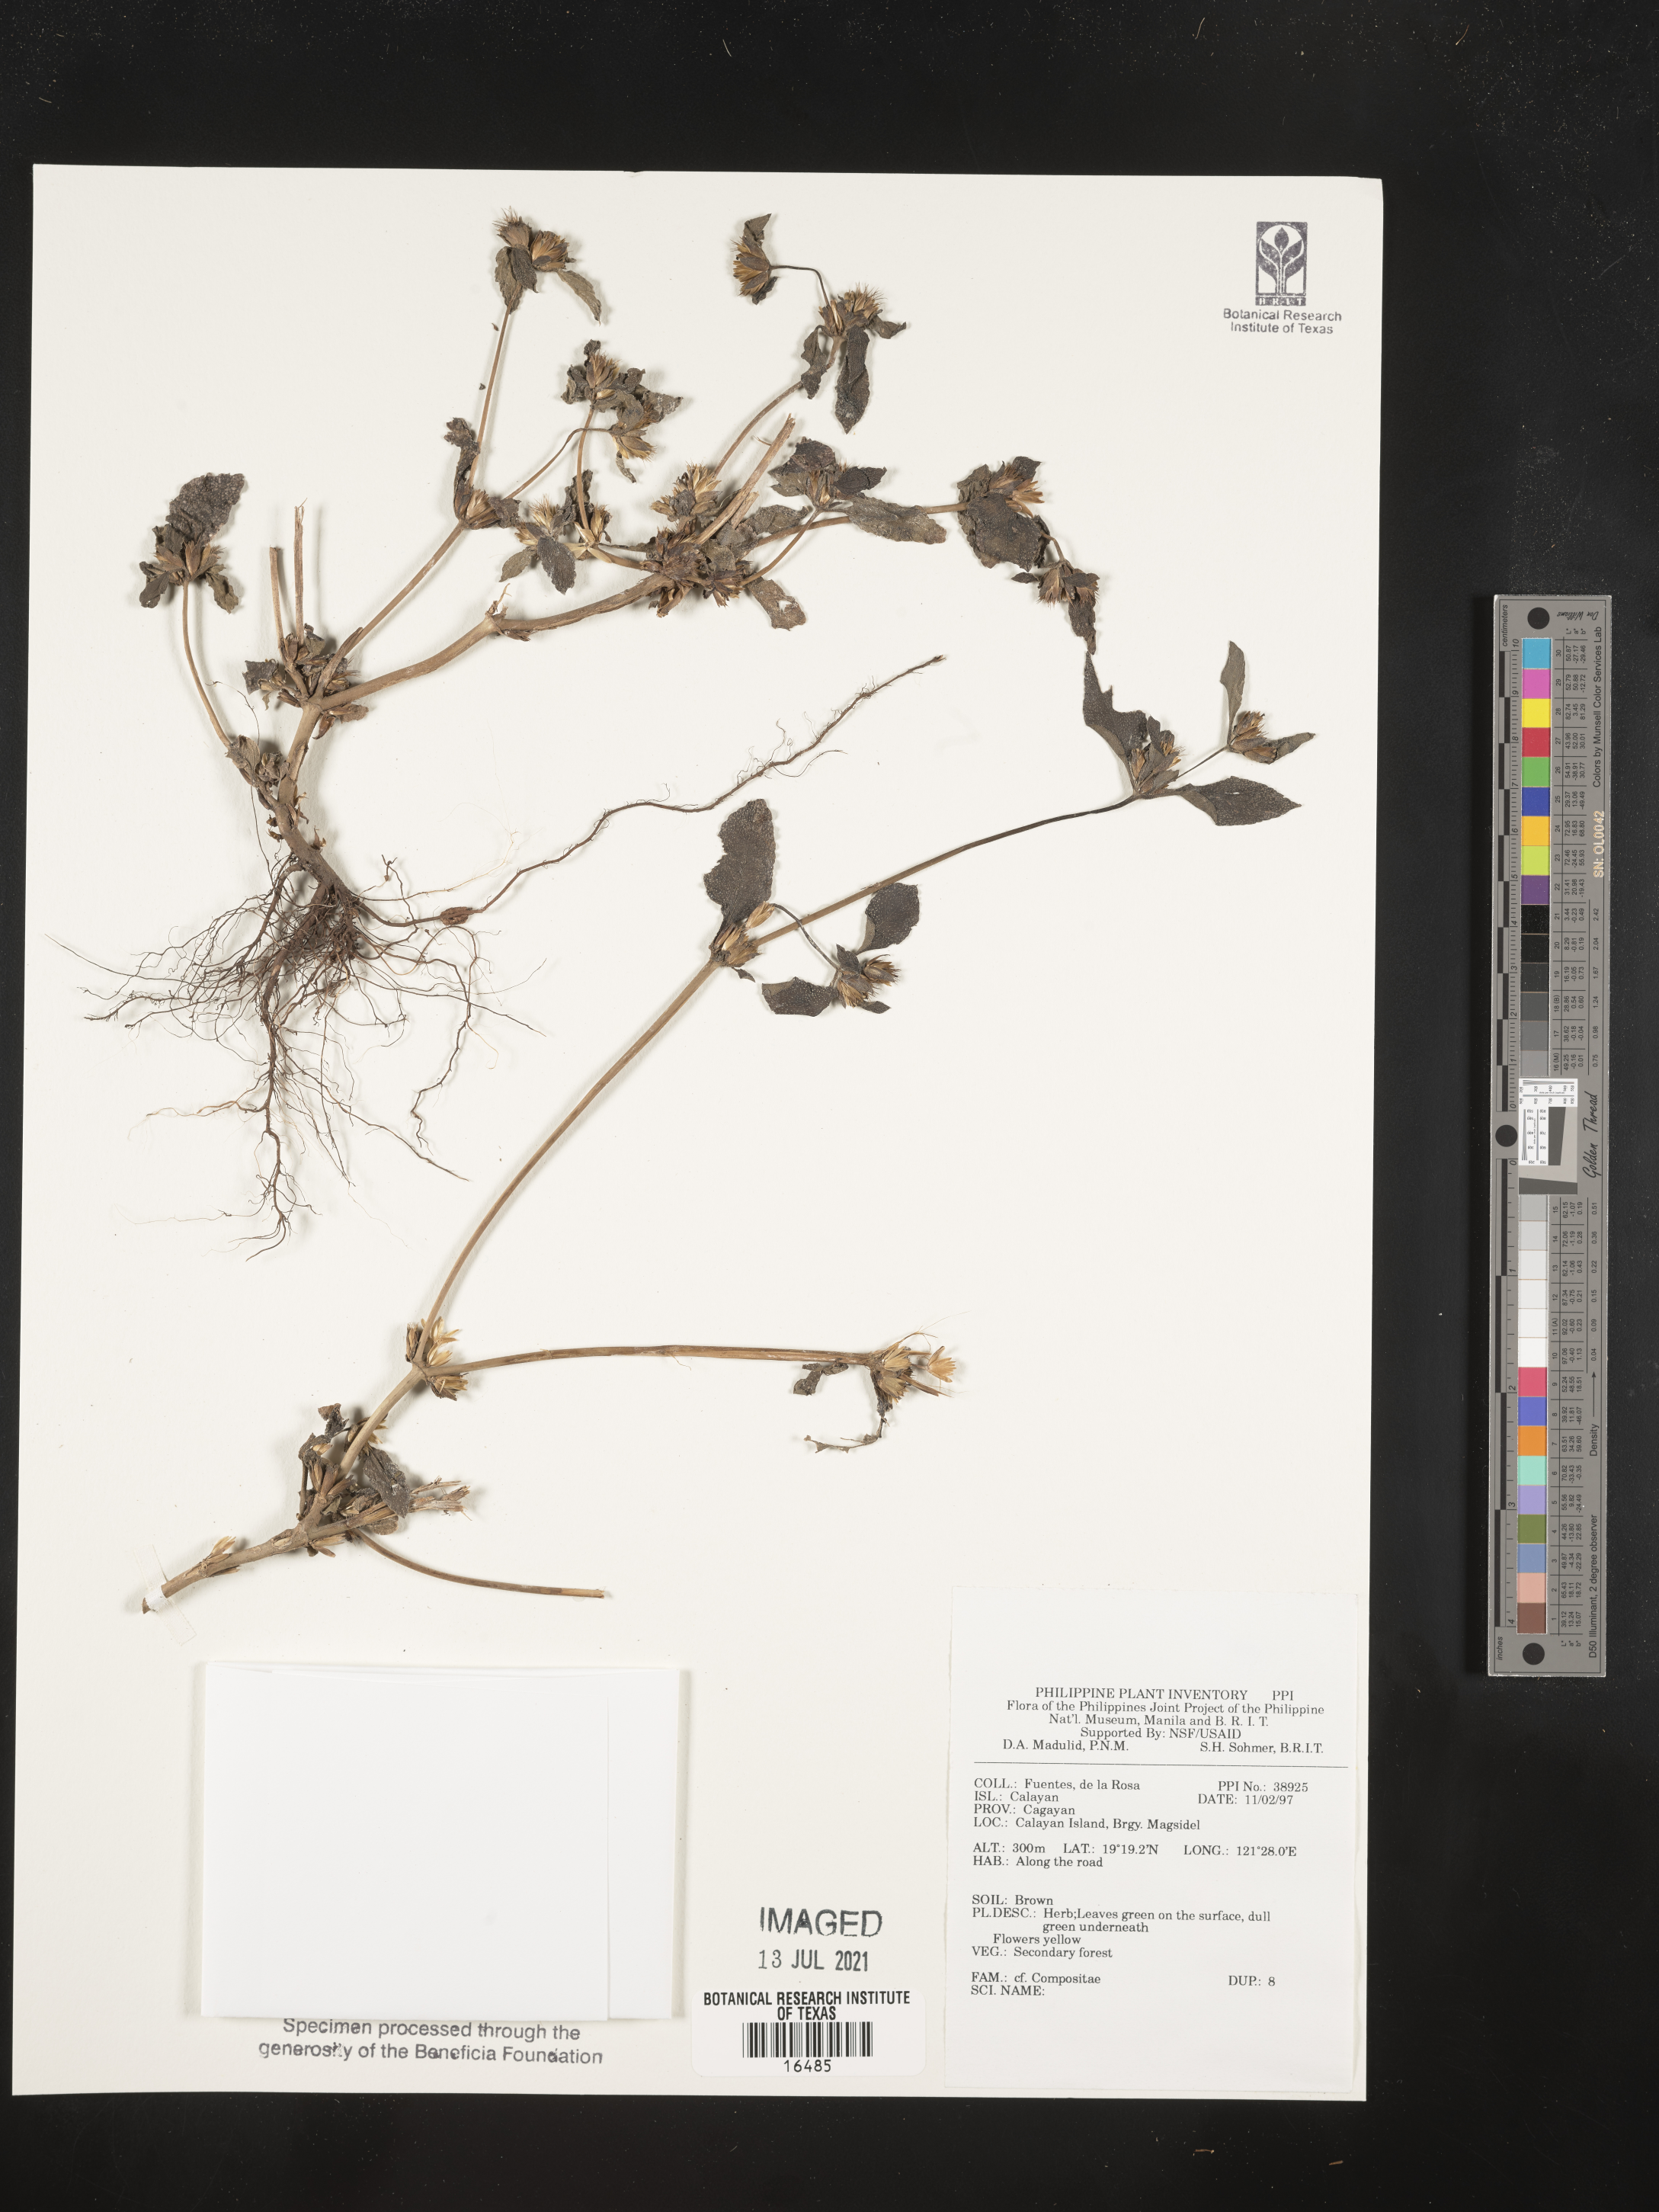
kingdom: Plantae
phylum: Tracheophyta
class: Magnoliopsida
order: Asterales
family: Asteraceae
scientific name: Asteraceae
